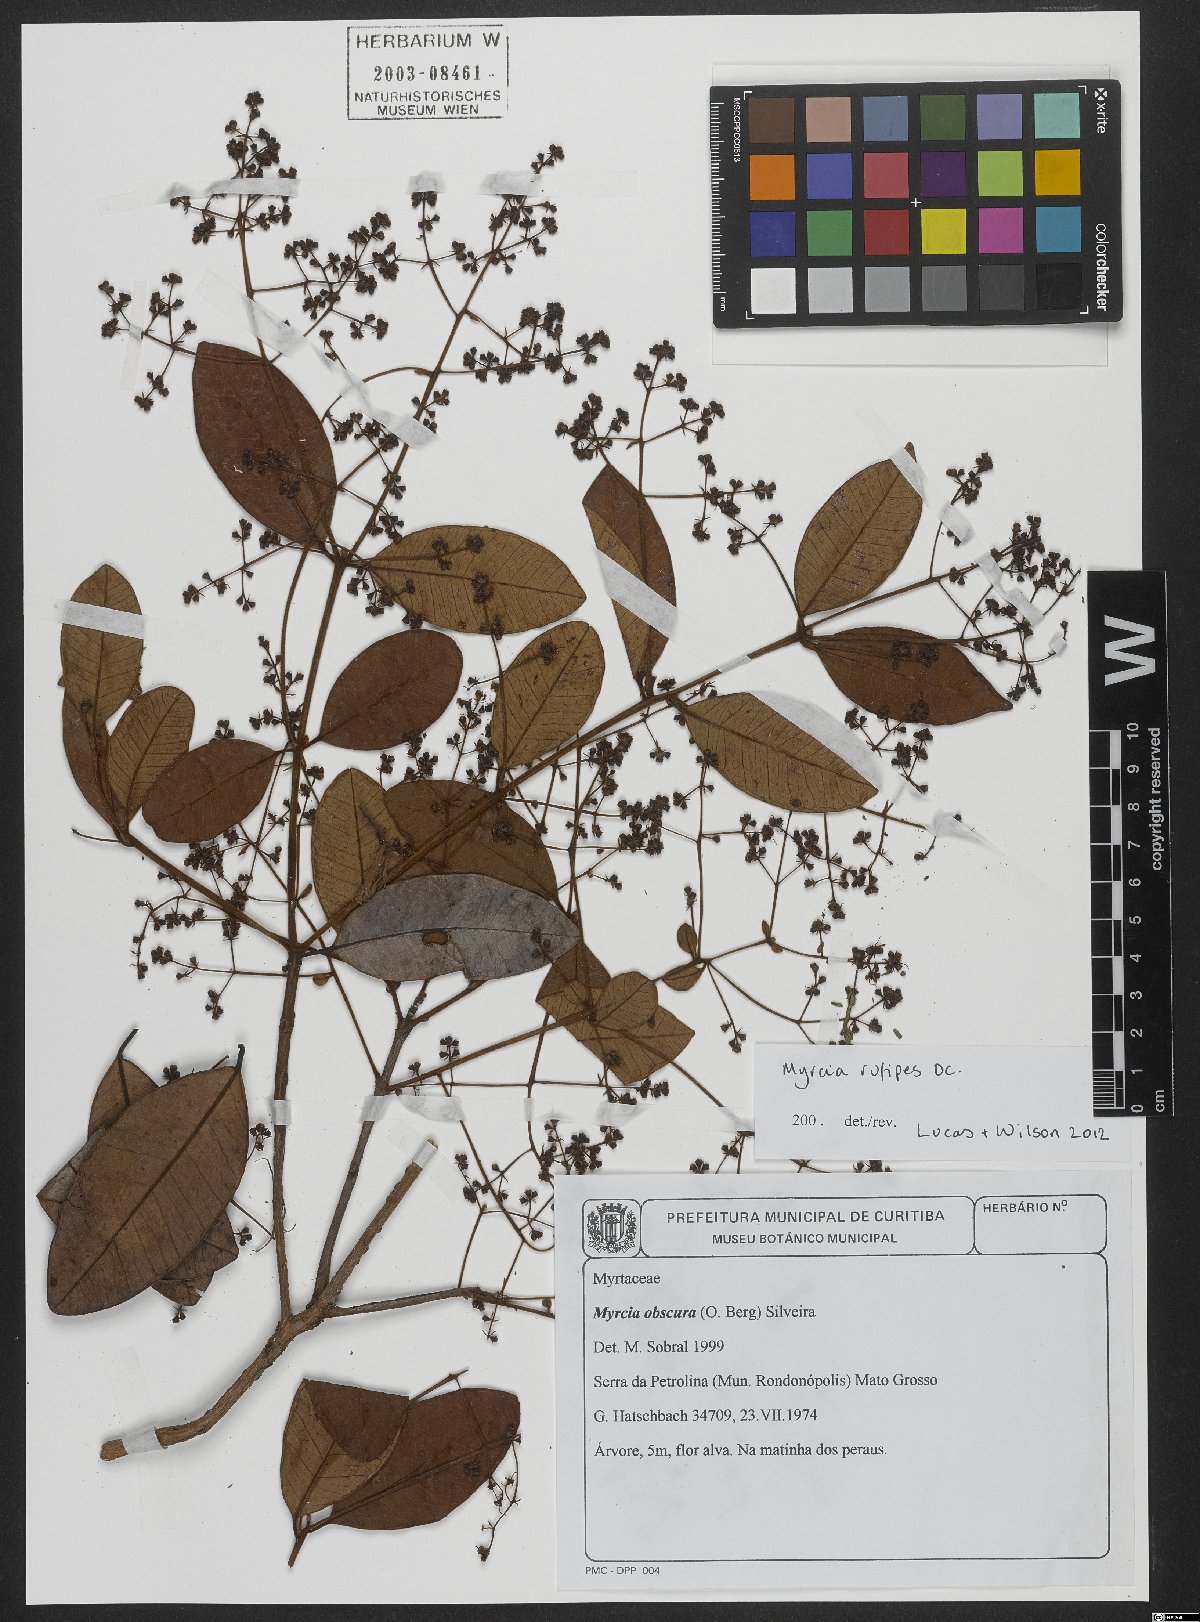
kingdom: Plantae
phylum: Tracheophyta
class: Magnoliopsida
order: Myrtales
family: Myrtaceae
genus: Myrcia
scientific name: Myrcia rufipes
